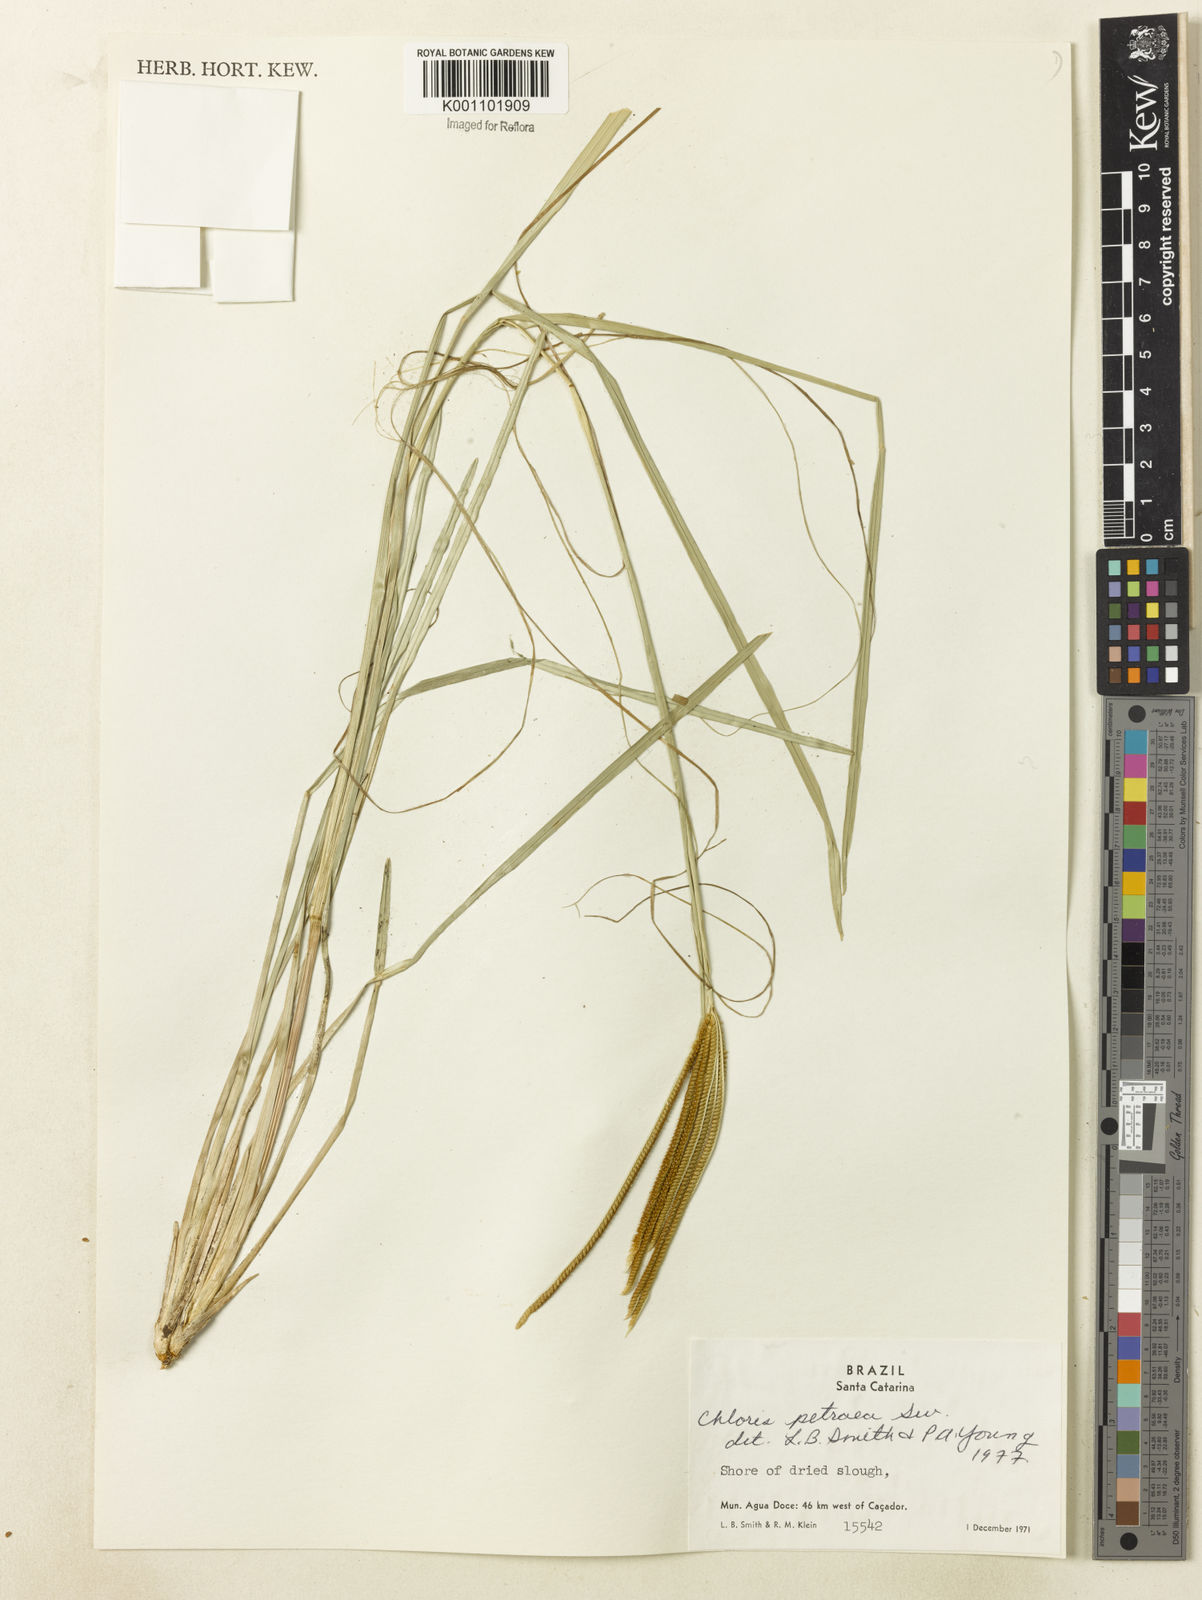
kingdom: Plantae
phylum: Tracheophyta
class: Liliopsida
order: Poales
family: Poaceae
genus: Eustachys
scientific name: Eustachys uliginosa
